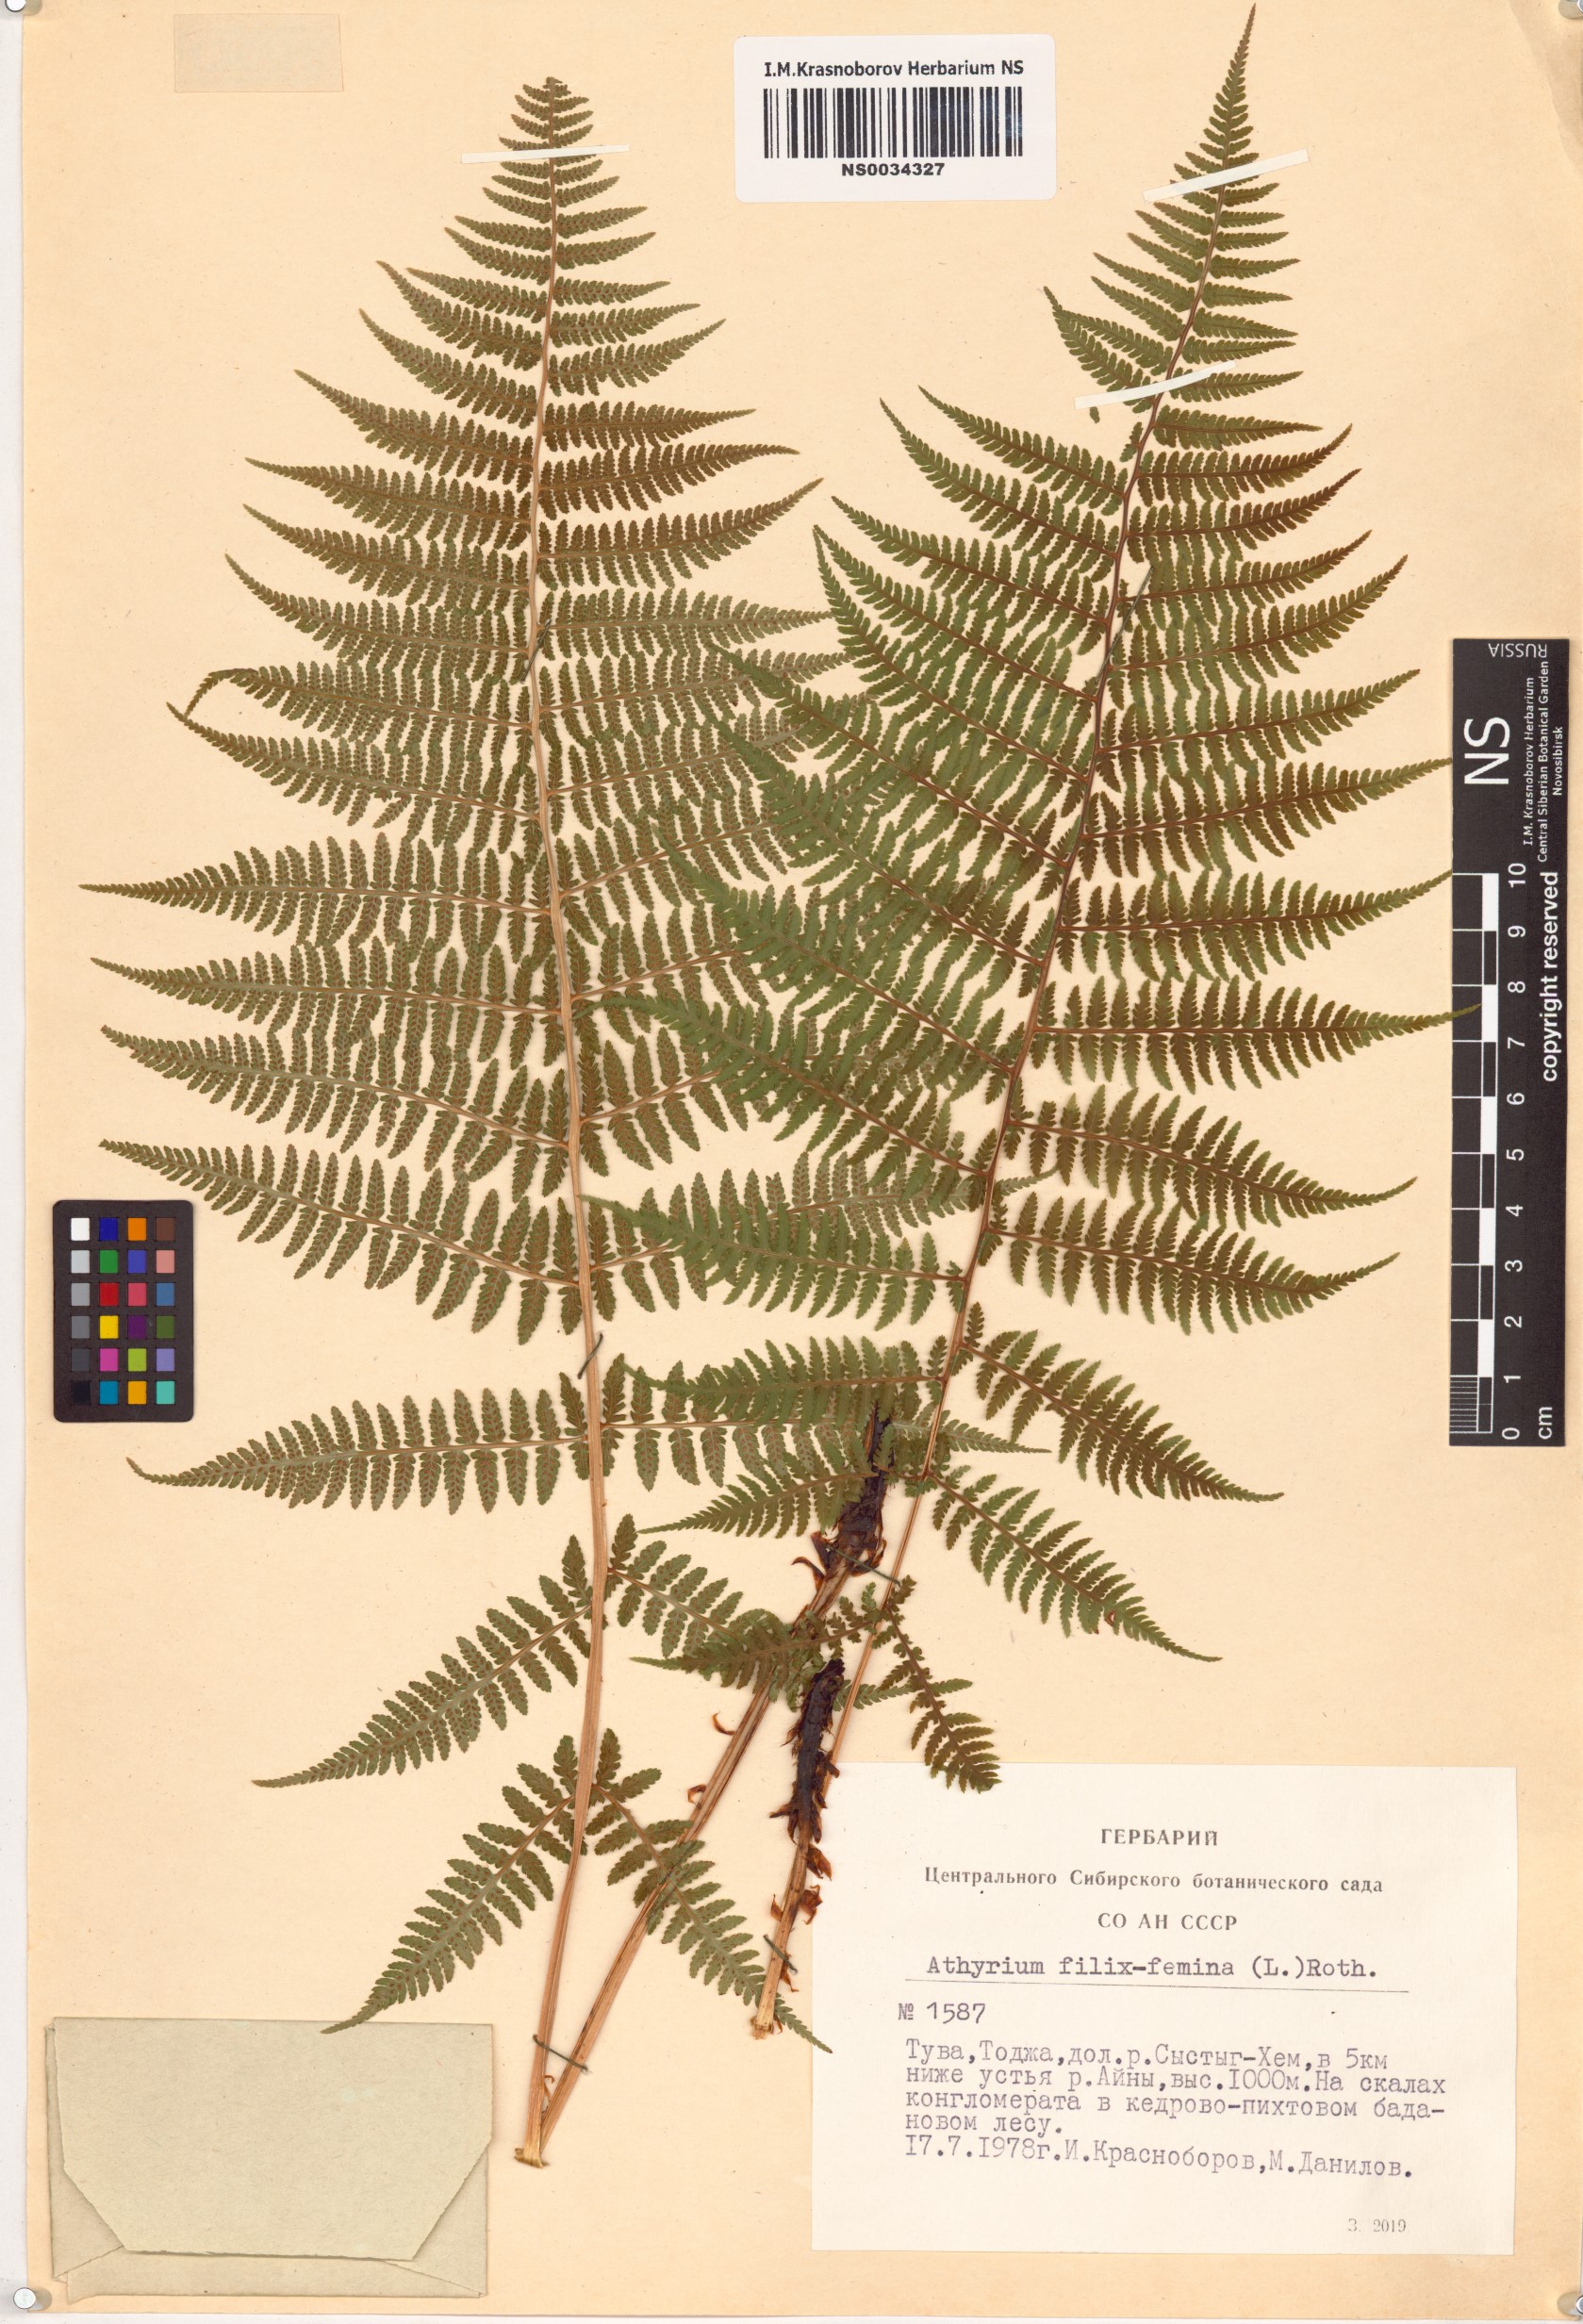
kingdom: Plantae
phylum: Tracheophyta
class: Polypodiopsida
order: Polypodiales
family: Athyriaceae
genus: Athyrium
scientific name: Athyrium filix-femina
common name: Lady fern
